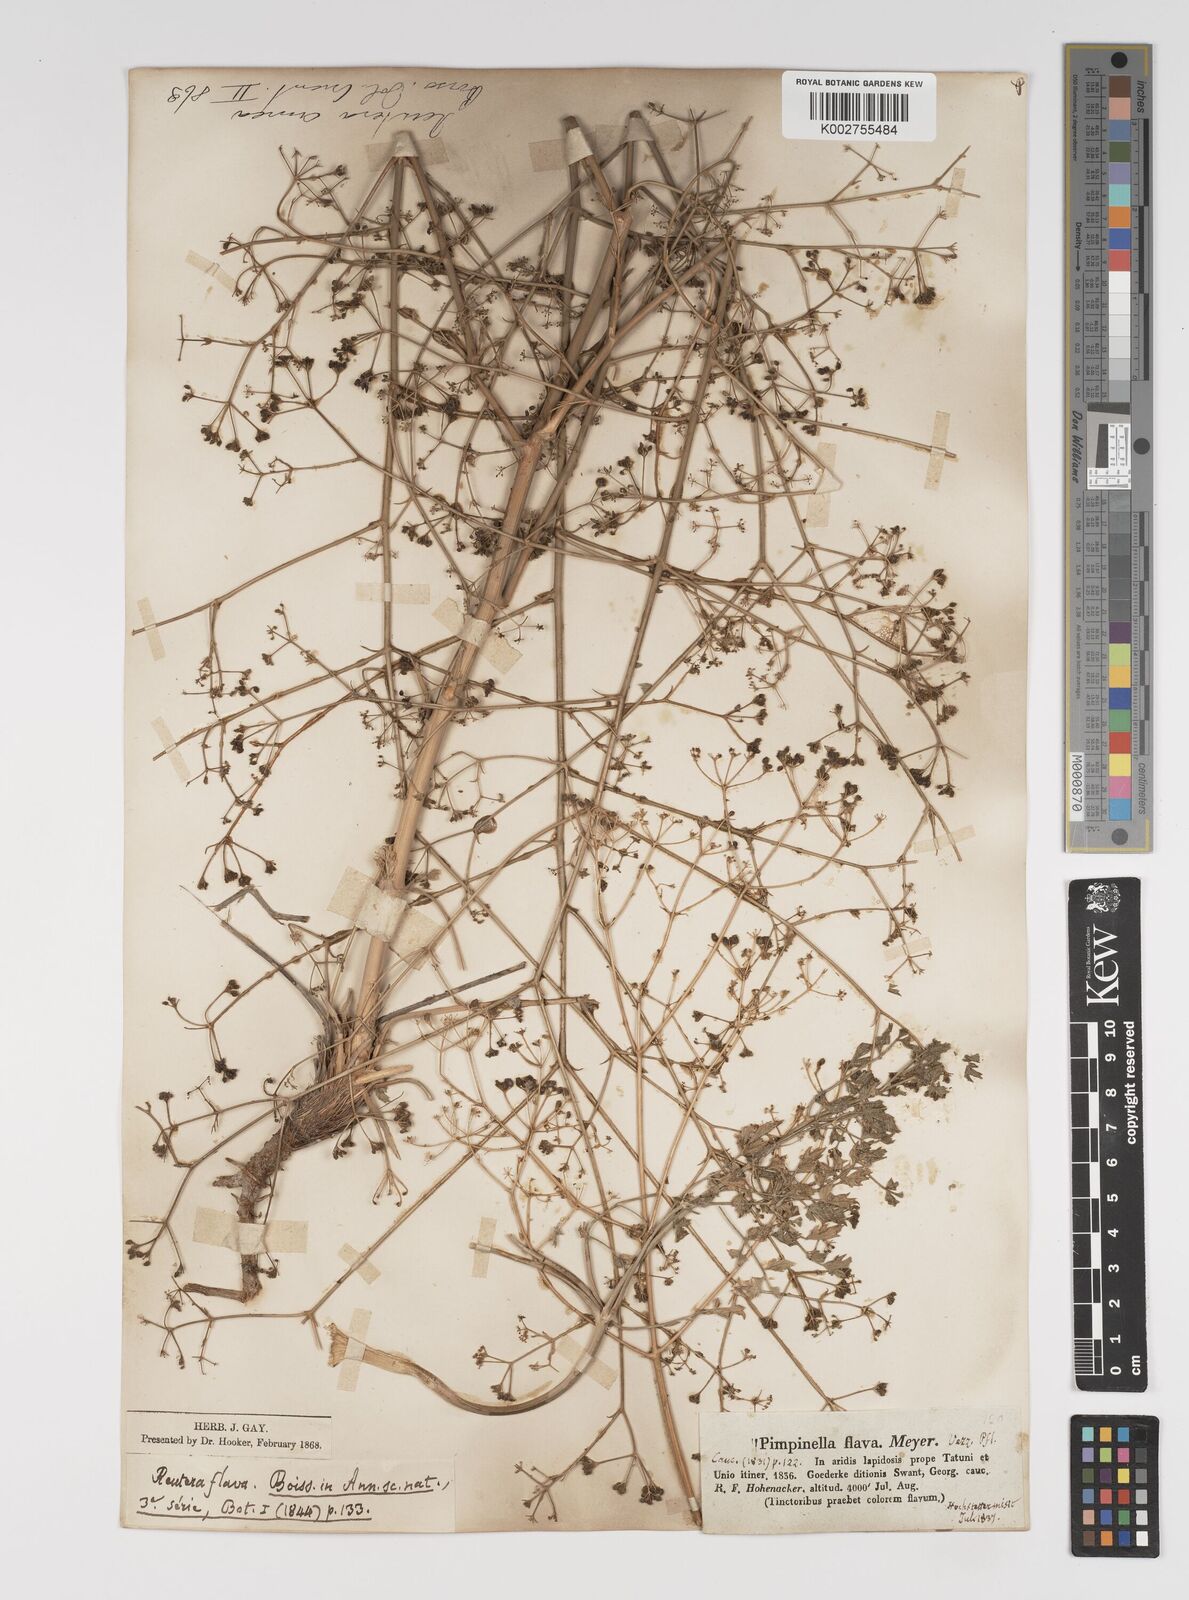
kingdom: Plantae
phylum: Tracheophyta
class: Magnoliopsida
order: Apiales
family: Apiaceae
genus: Pimpinella
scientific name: Pimpinella aurea
